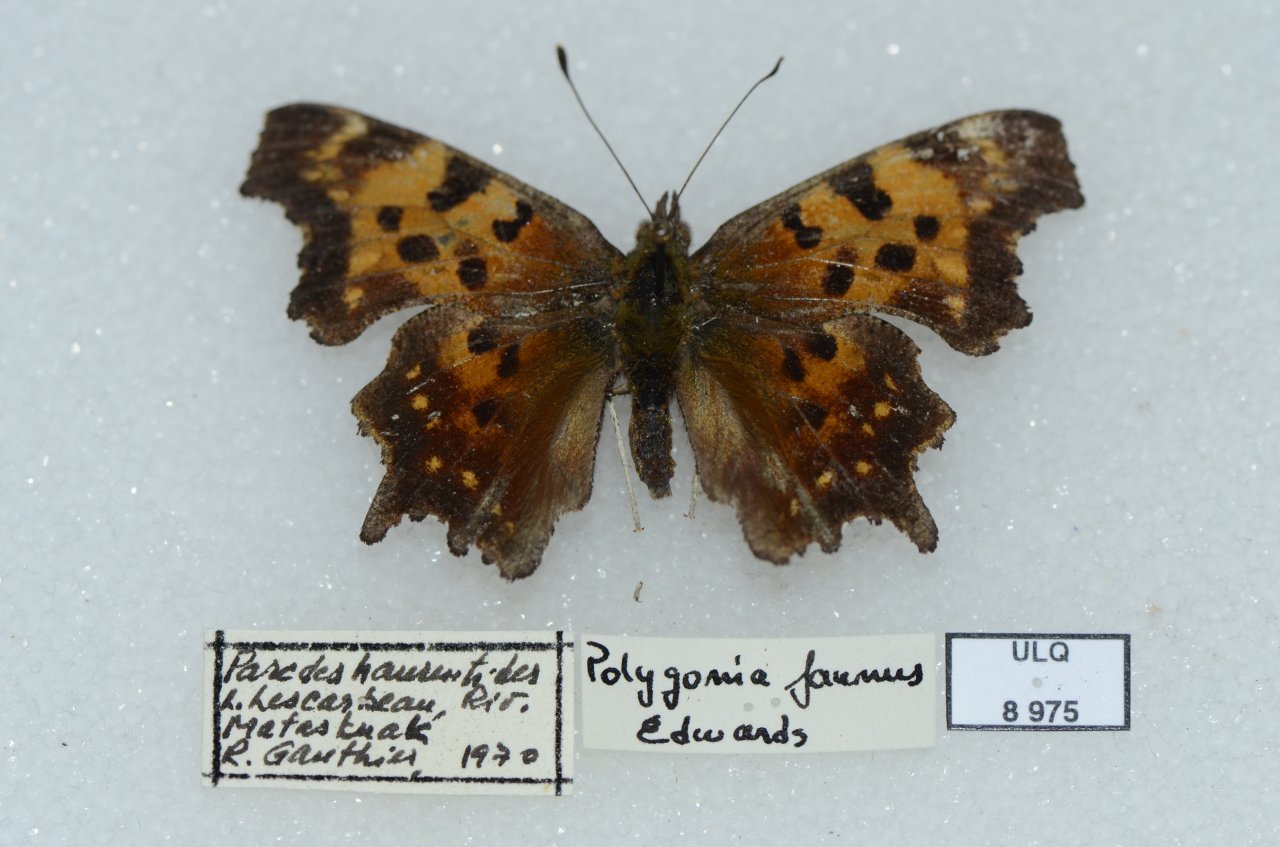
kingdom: Animalia
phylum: Arthropoda
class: Insecta
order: Lepidoptera
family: Nymphalidae
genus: Polygonia
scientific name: Polygonia faunus
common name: Green Comma
